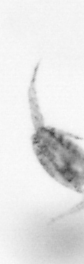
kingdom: Animalia
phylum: Arthropoda
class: Copepoda
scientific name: Copepoda
